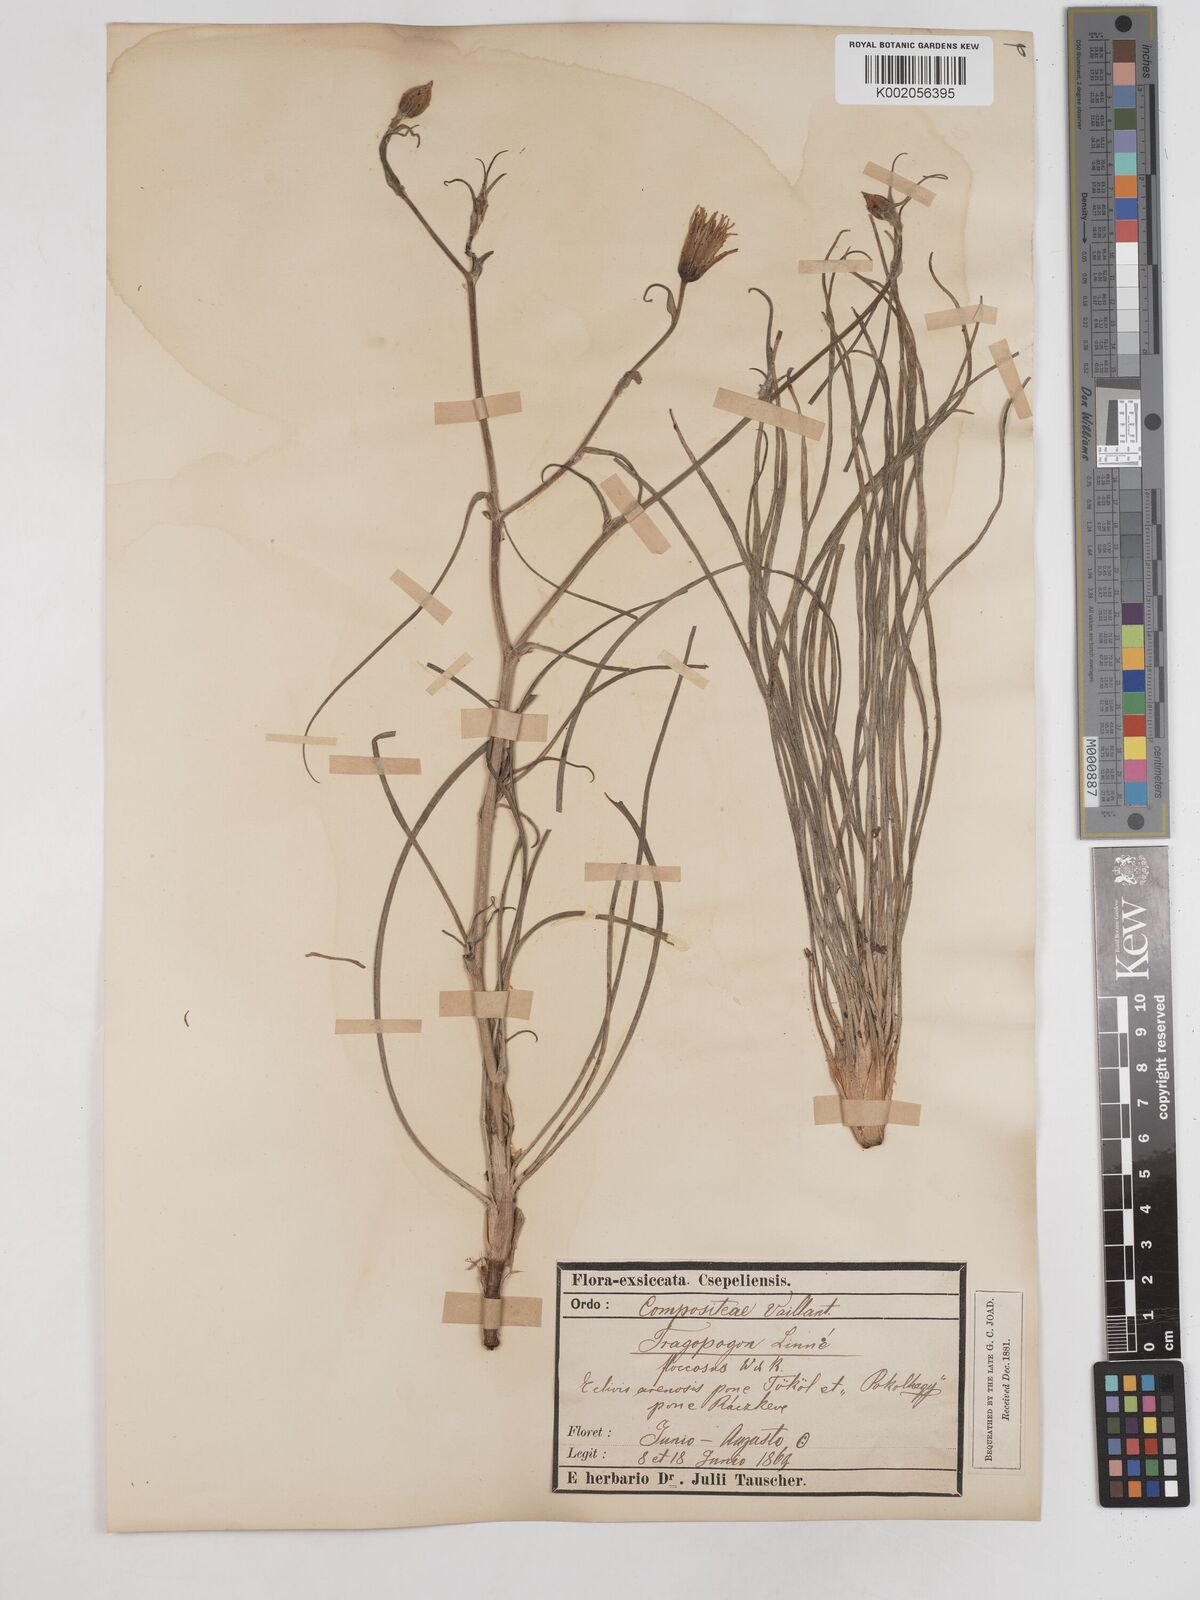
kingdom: Plantae
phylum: Tracheophyta
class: Magnoliopsida
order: Asterales
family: Asteraceae
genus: Tragopogon
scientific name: Tragopogon floccosus
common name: Woolly goatsbeard
